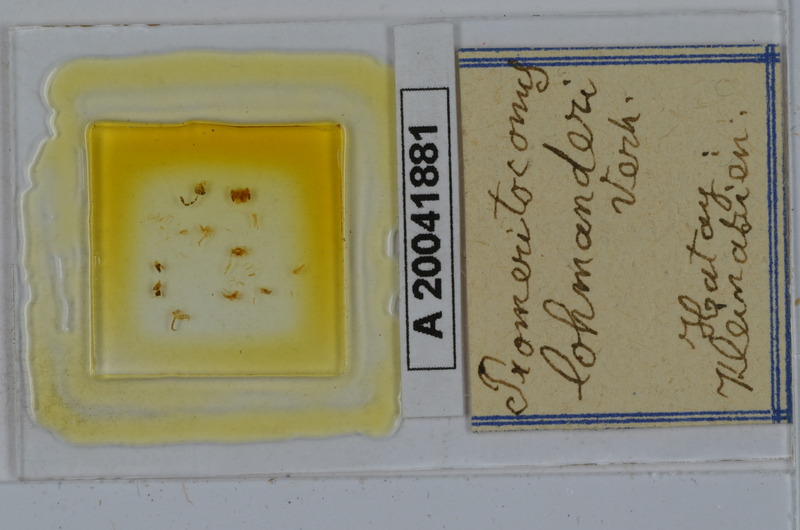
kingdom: Animalia
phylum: Arthropoda
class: Diplopoda
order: Julida
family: Julidae
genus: Promeritoconus
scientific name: Promeritoconus lohmanderi
